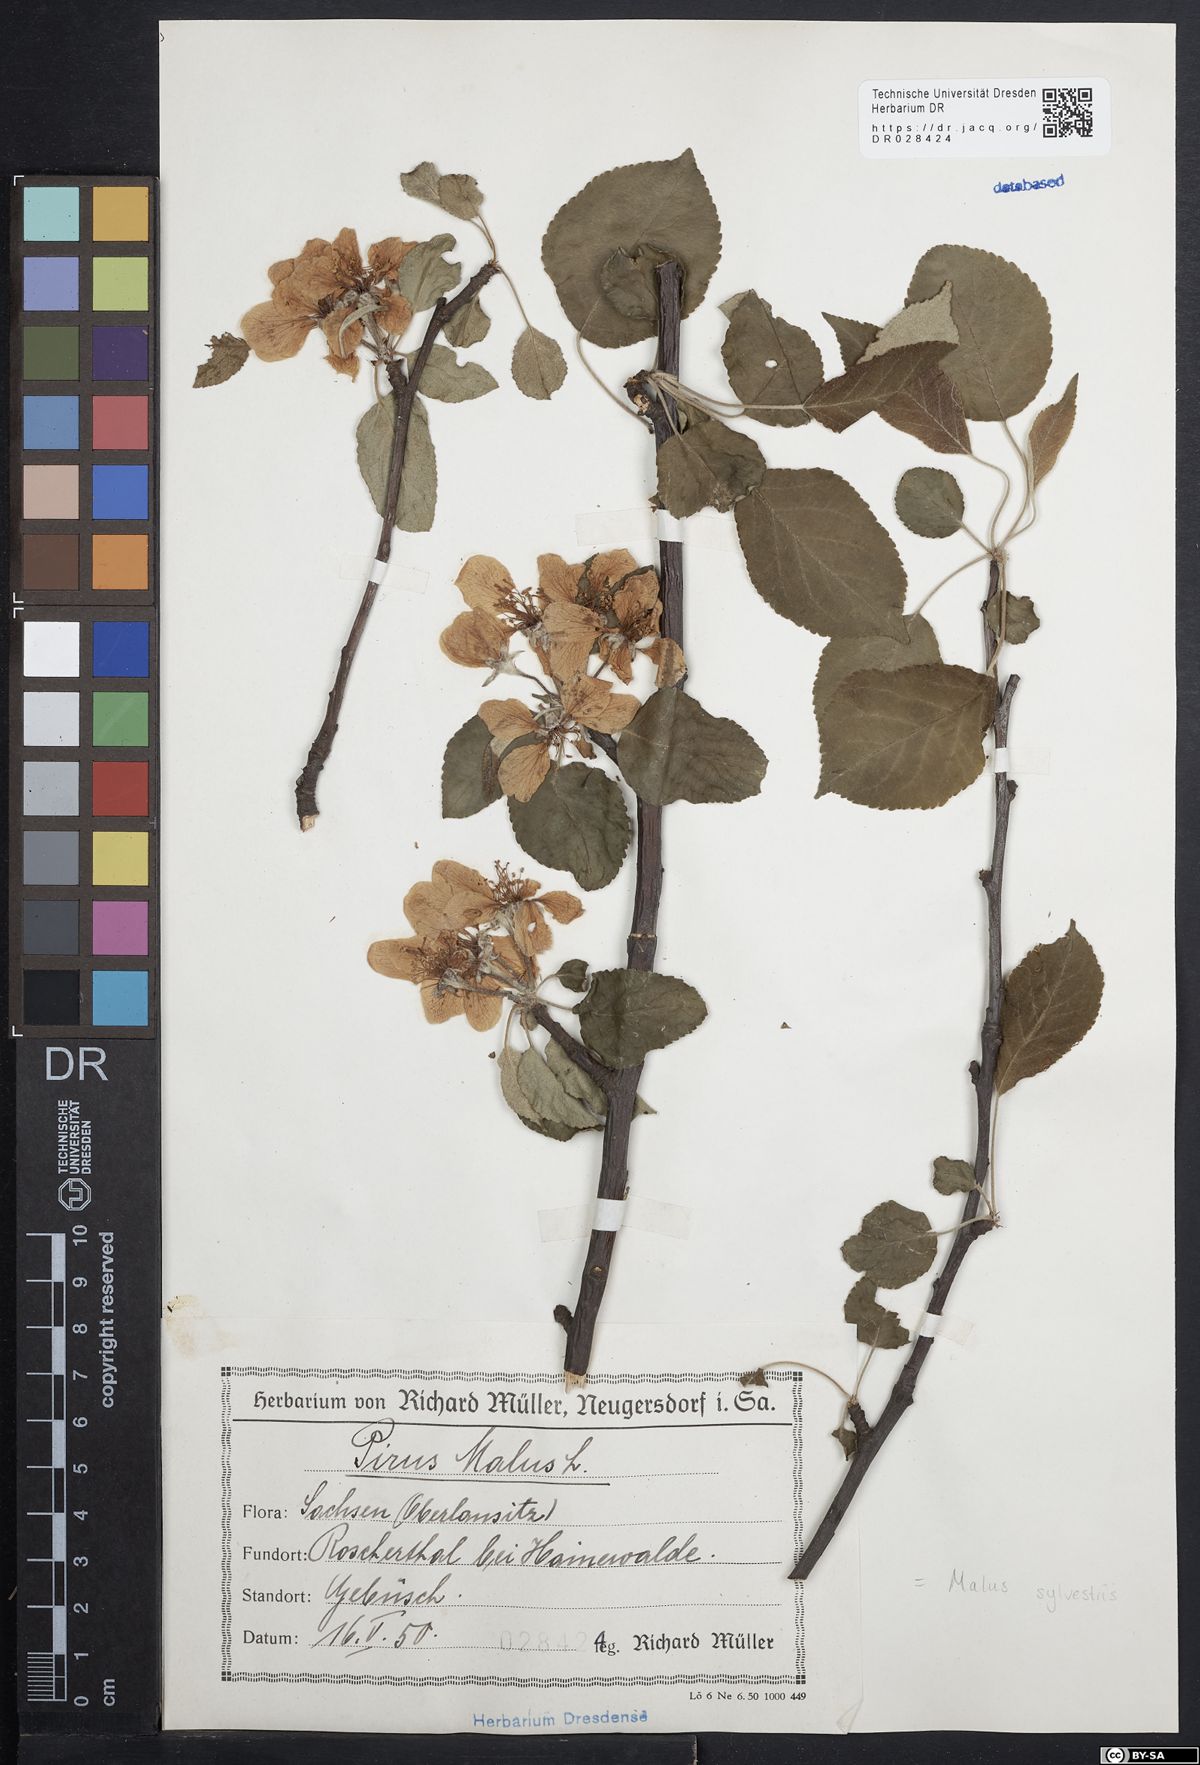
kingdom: Plantae
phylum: Tracheophyta
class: Magnoliopsida
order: Rosales
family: Rosaceae
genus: Malus
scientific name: Malus sylvestris
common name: Crab apple
